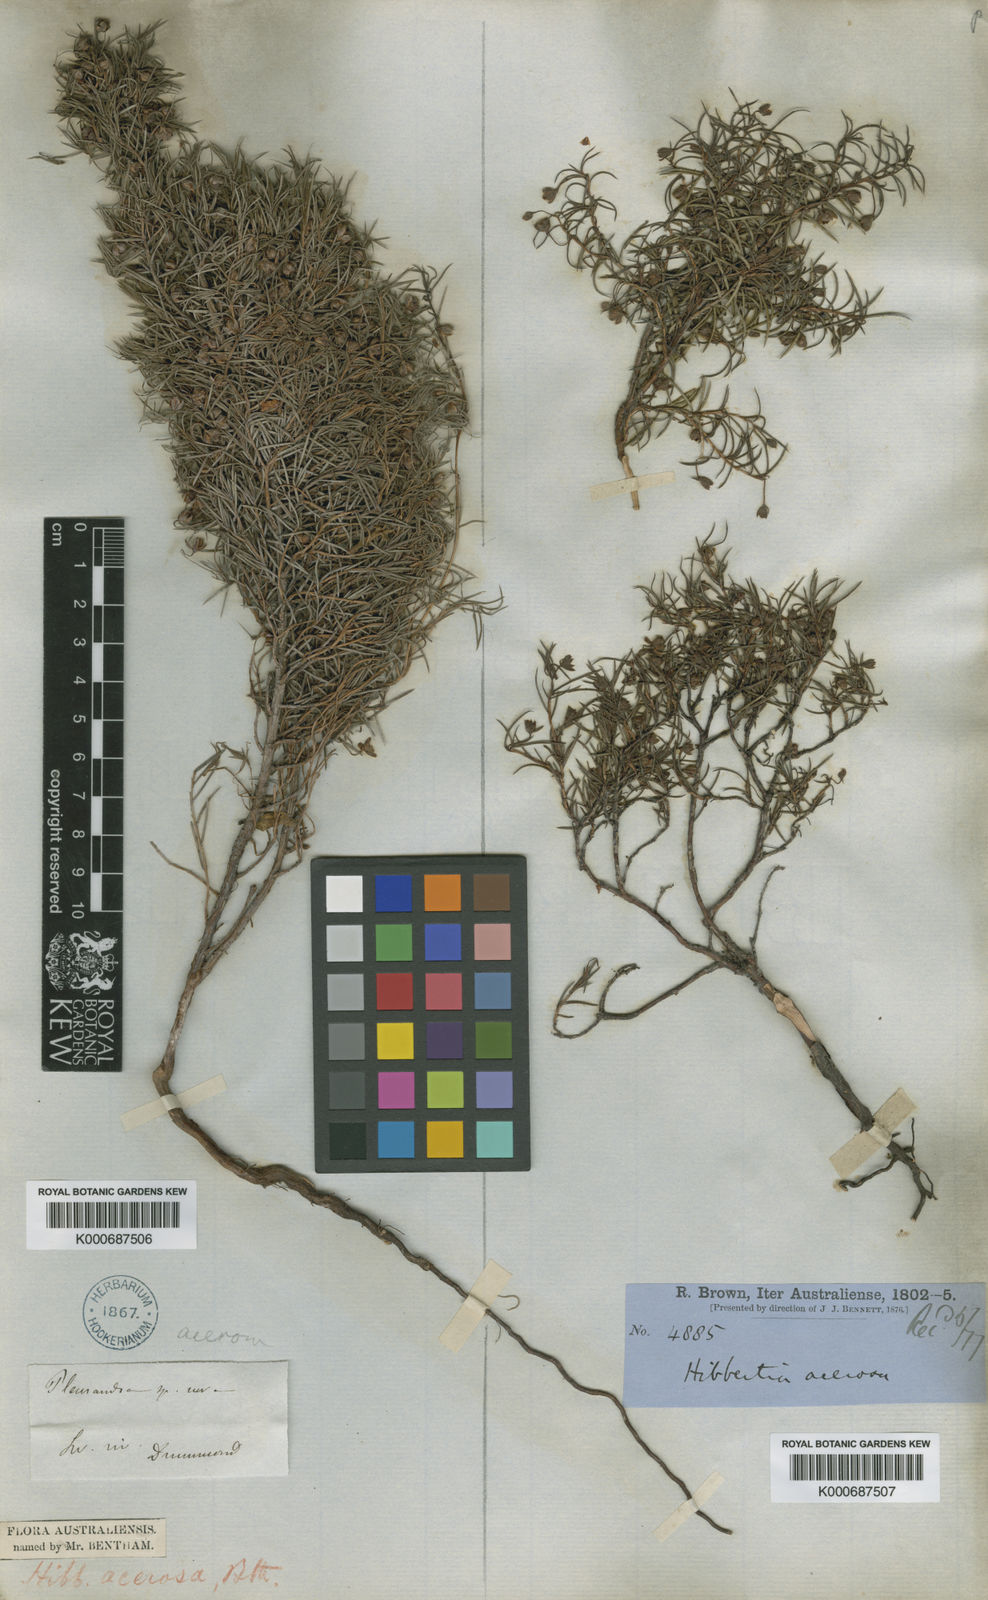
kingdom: Plantae
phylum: Tracheophyta
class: Magnoliopsida
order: Dilleniales
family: Dilleniaceae
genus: Hibbertia
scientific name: Hibbertia acerosa
